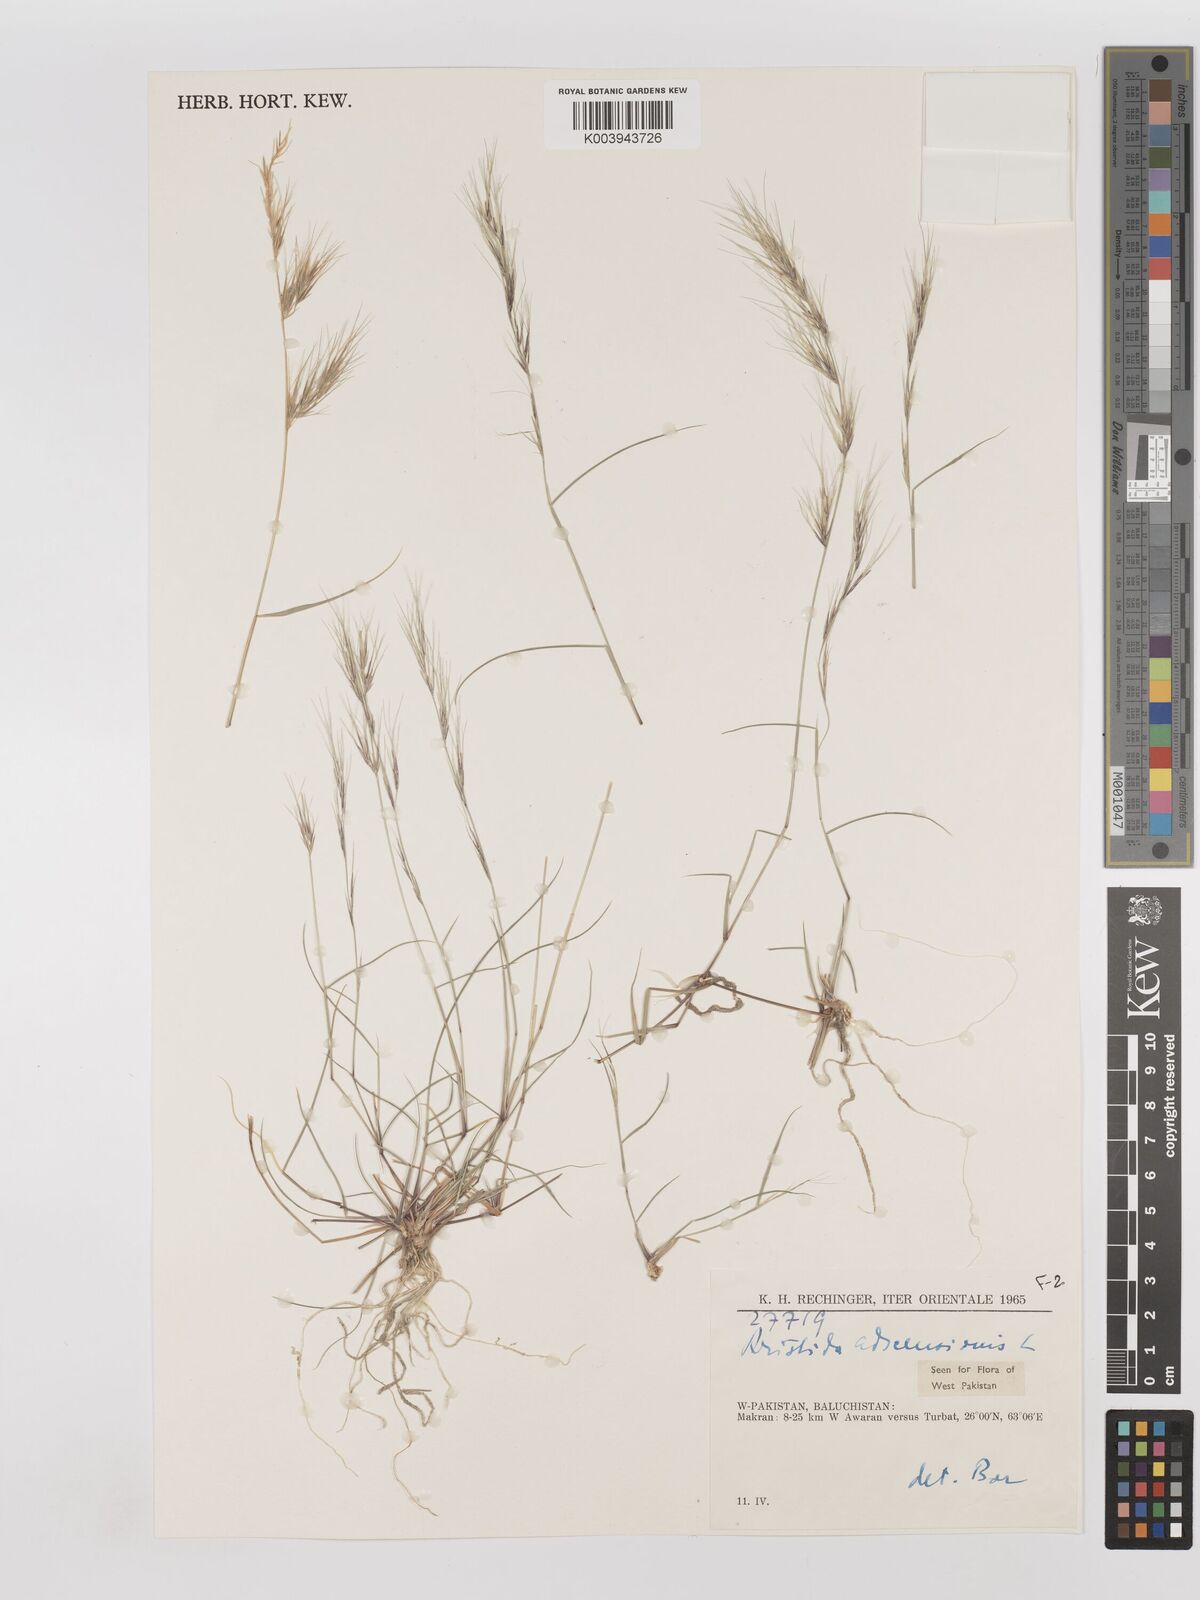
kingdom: Plantae
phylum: Tracheophyta
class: Liliopsida
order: Poales
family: Poaceae
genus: Aristida
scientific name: Aristida adscensionis
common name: Sixweeks threeawn
